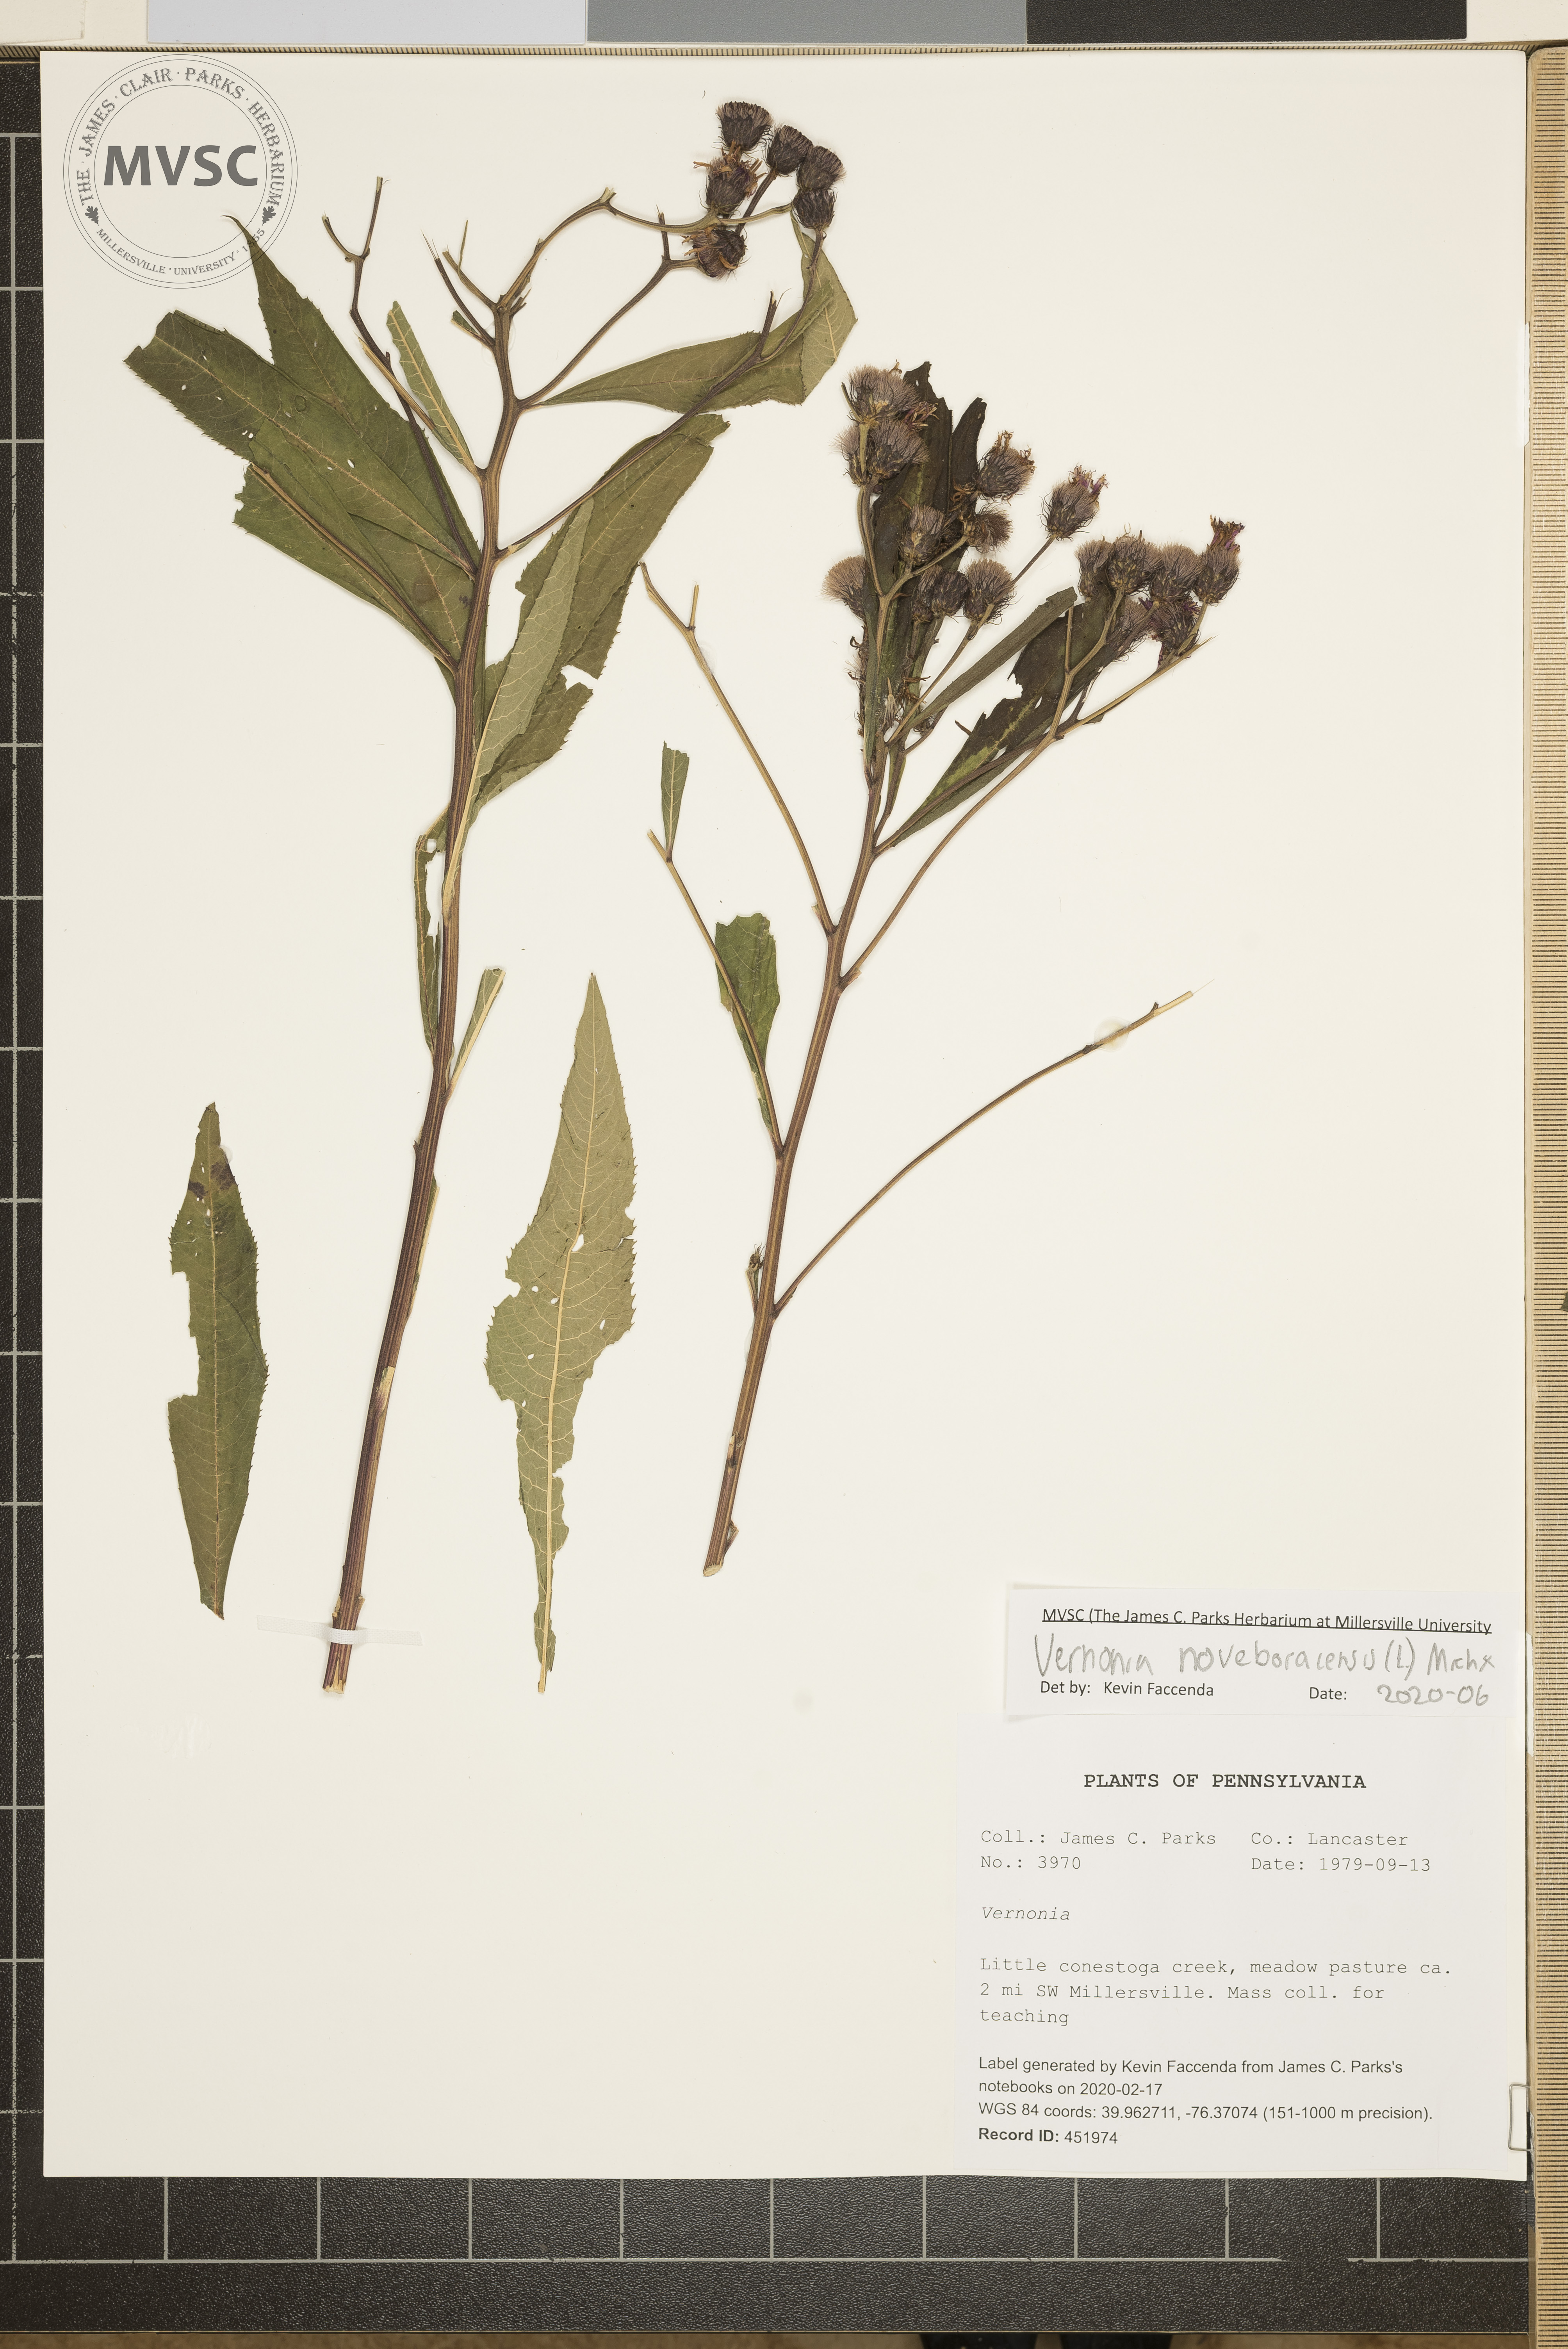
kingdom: Plantae
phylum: Tracheophyta
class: Magnoliopsida
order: Asterales
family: Asteraceae
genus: Vernonia
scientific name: Vernonia noveboracensis
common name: New york ironweed
